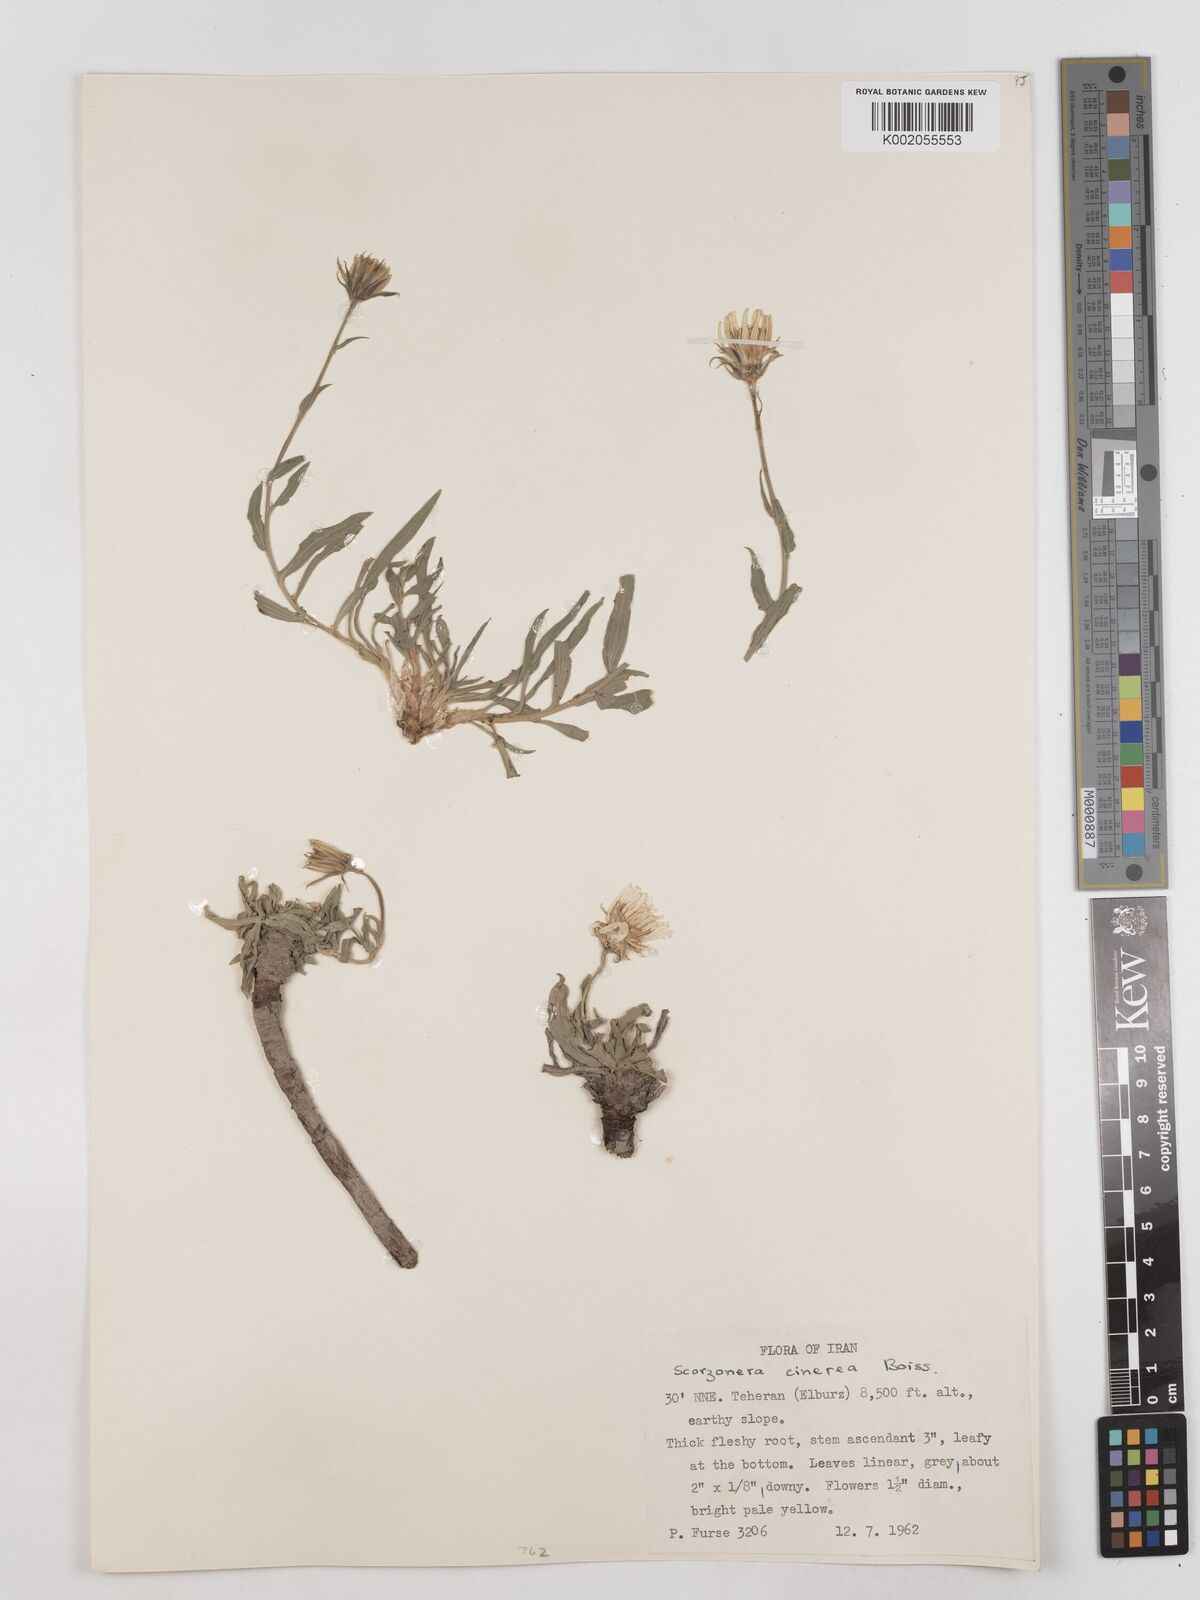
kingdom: Plantae
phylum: Tracheophyta
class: Magnoliopsida
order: Asterales
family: Asteraceae
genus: Cigdemia
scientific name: Cigdemia cinerea
